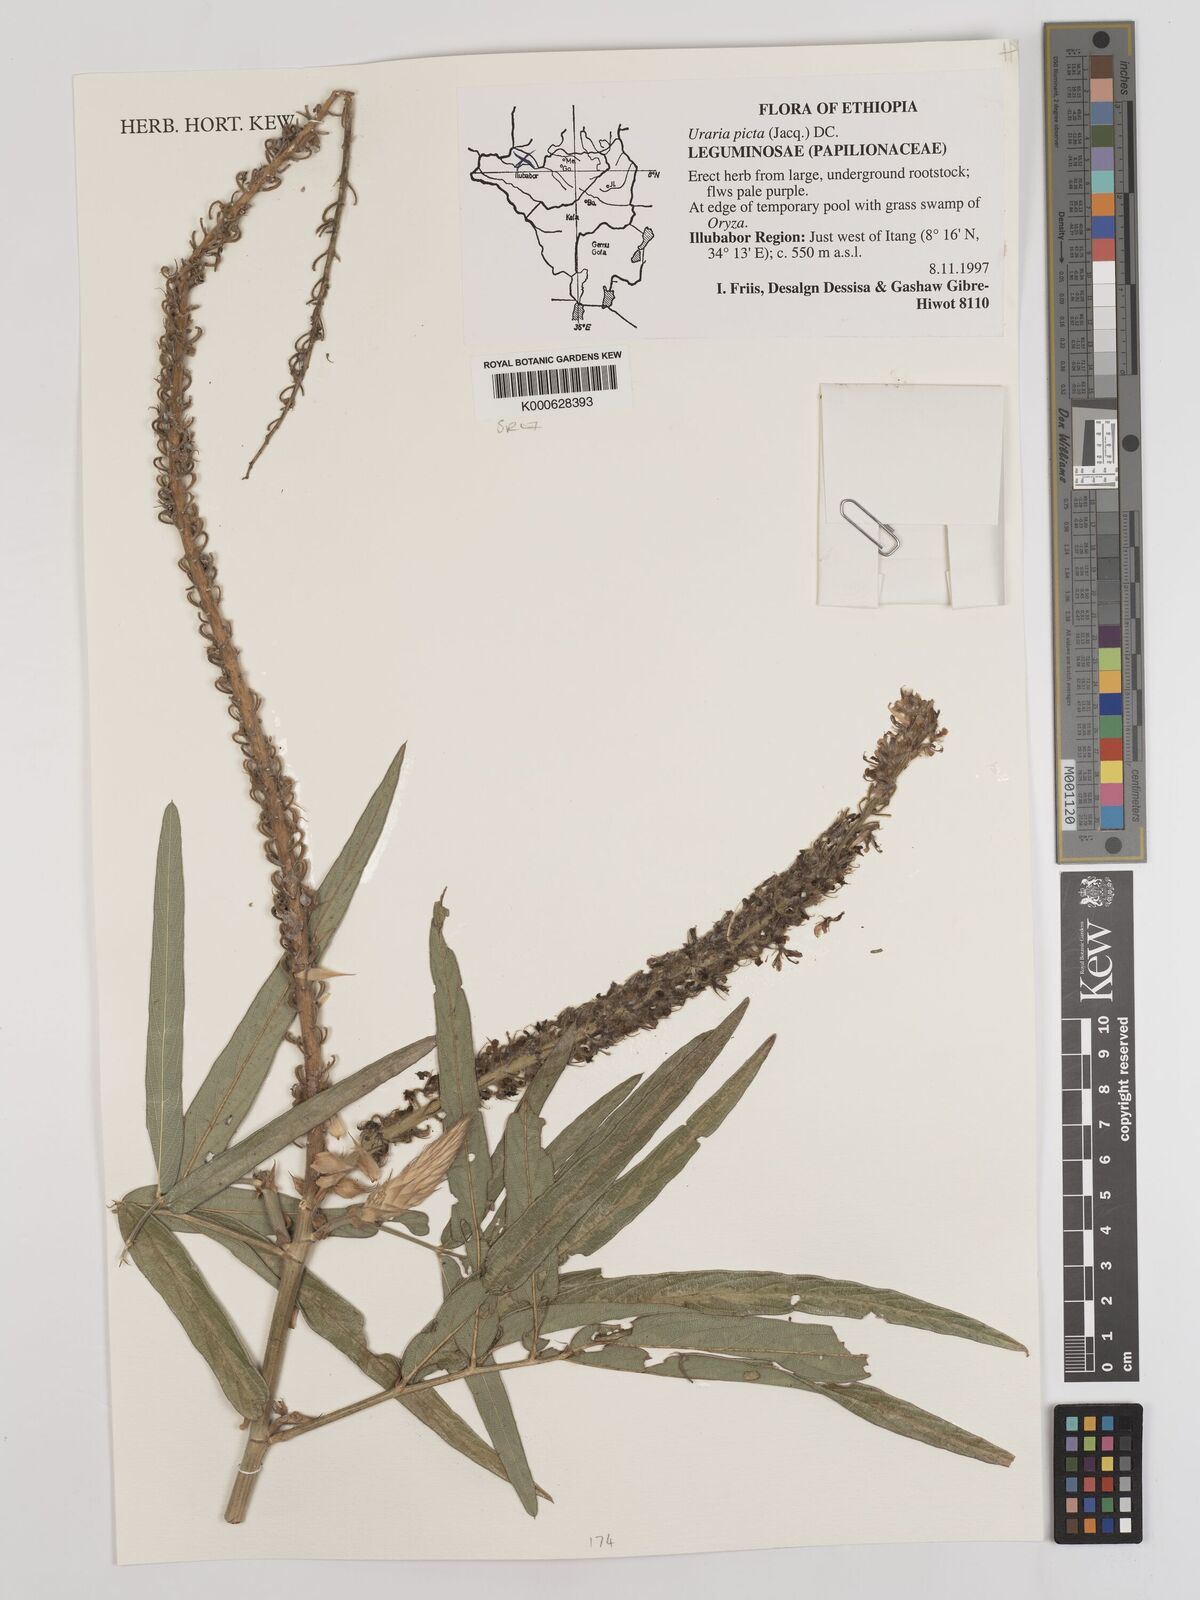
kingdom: Plantae
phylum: Tracheophyta
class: Magnoliopsida
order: Fabales
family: Fabaceae
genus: Uraria
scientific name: Uraria picta
